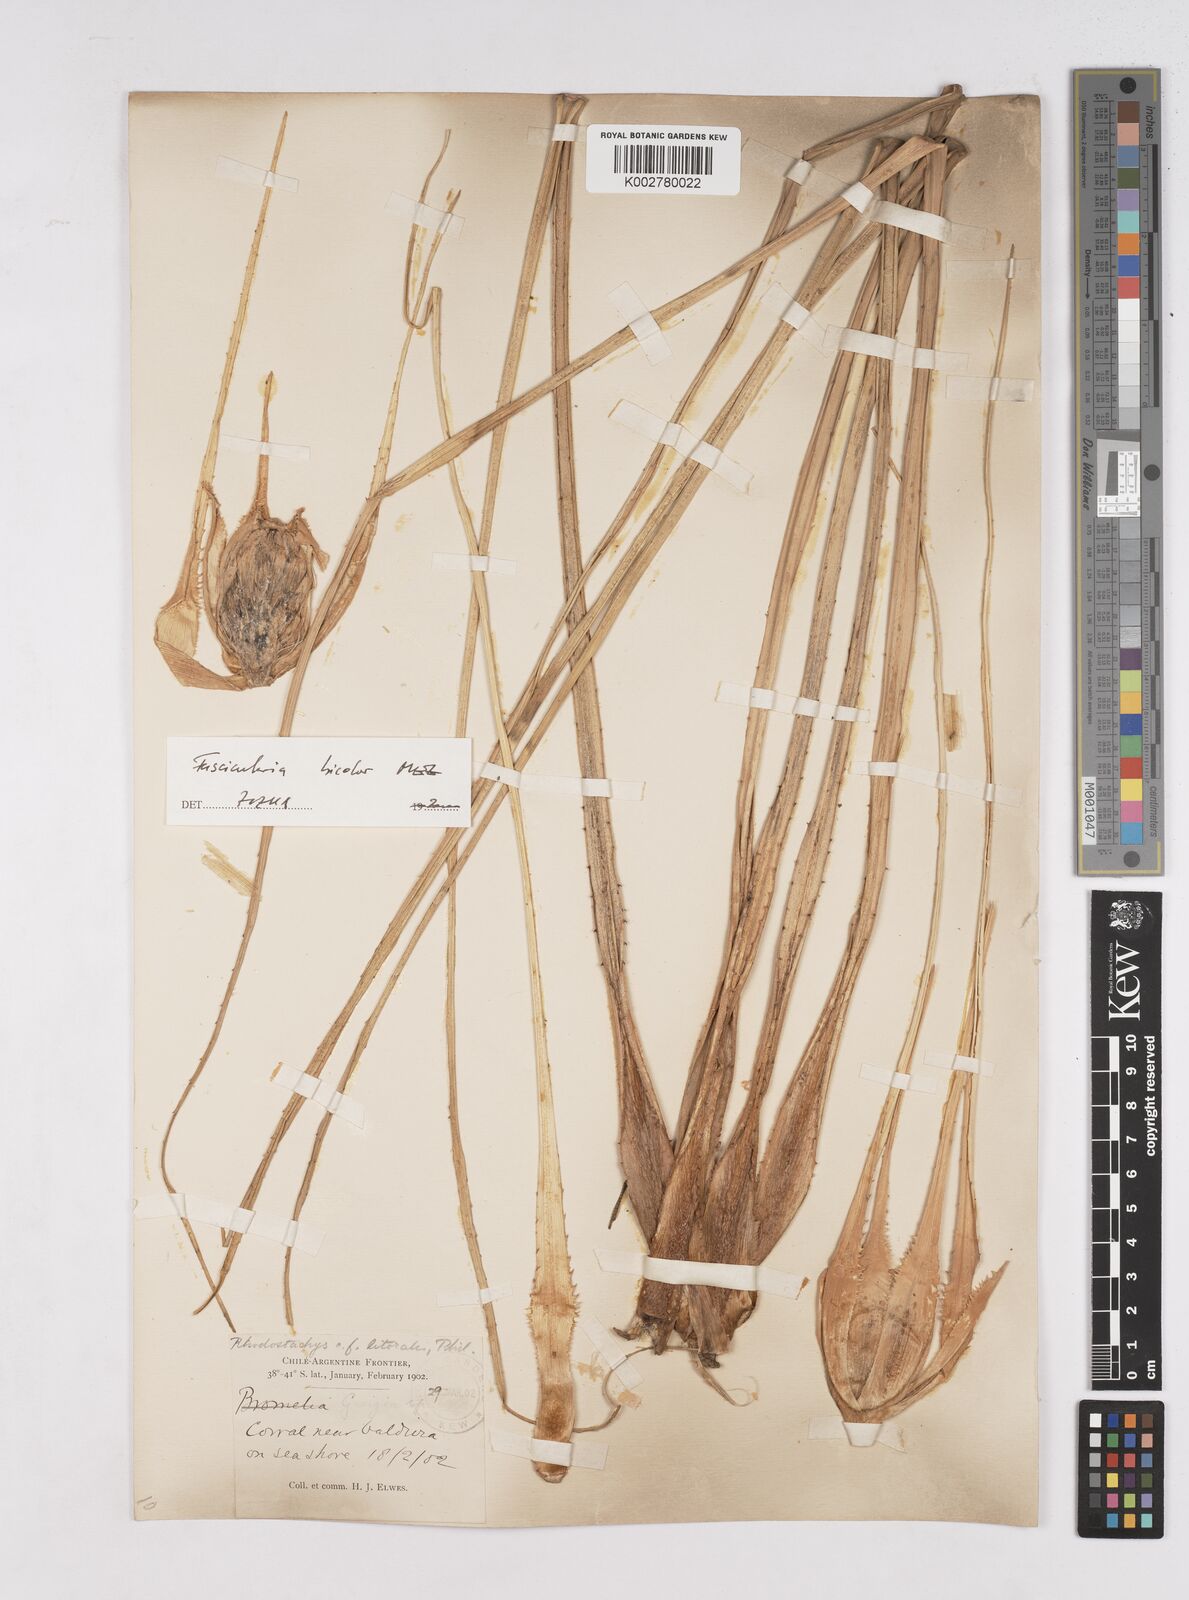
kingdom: Plantae
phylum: Tracheophyta
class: Liliopsida
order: Poales
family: Bromeliaceae
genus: Ochagavia
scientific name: Ochagavia litoralis
